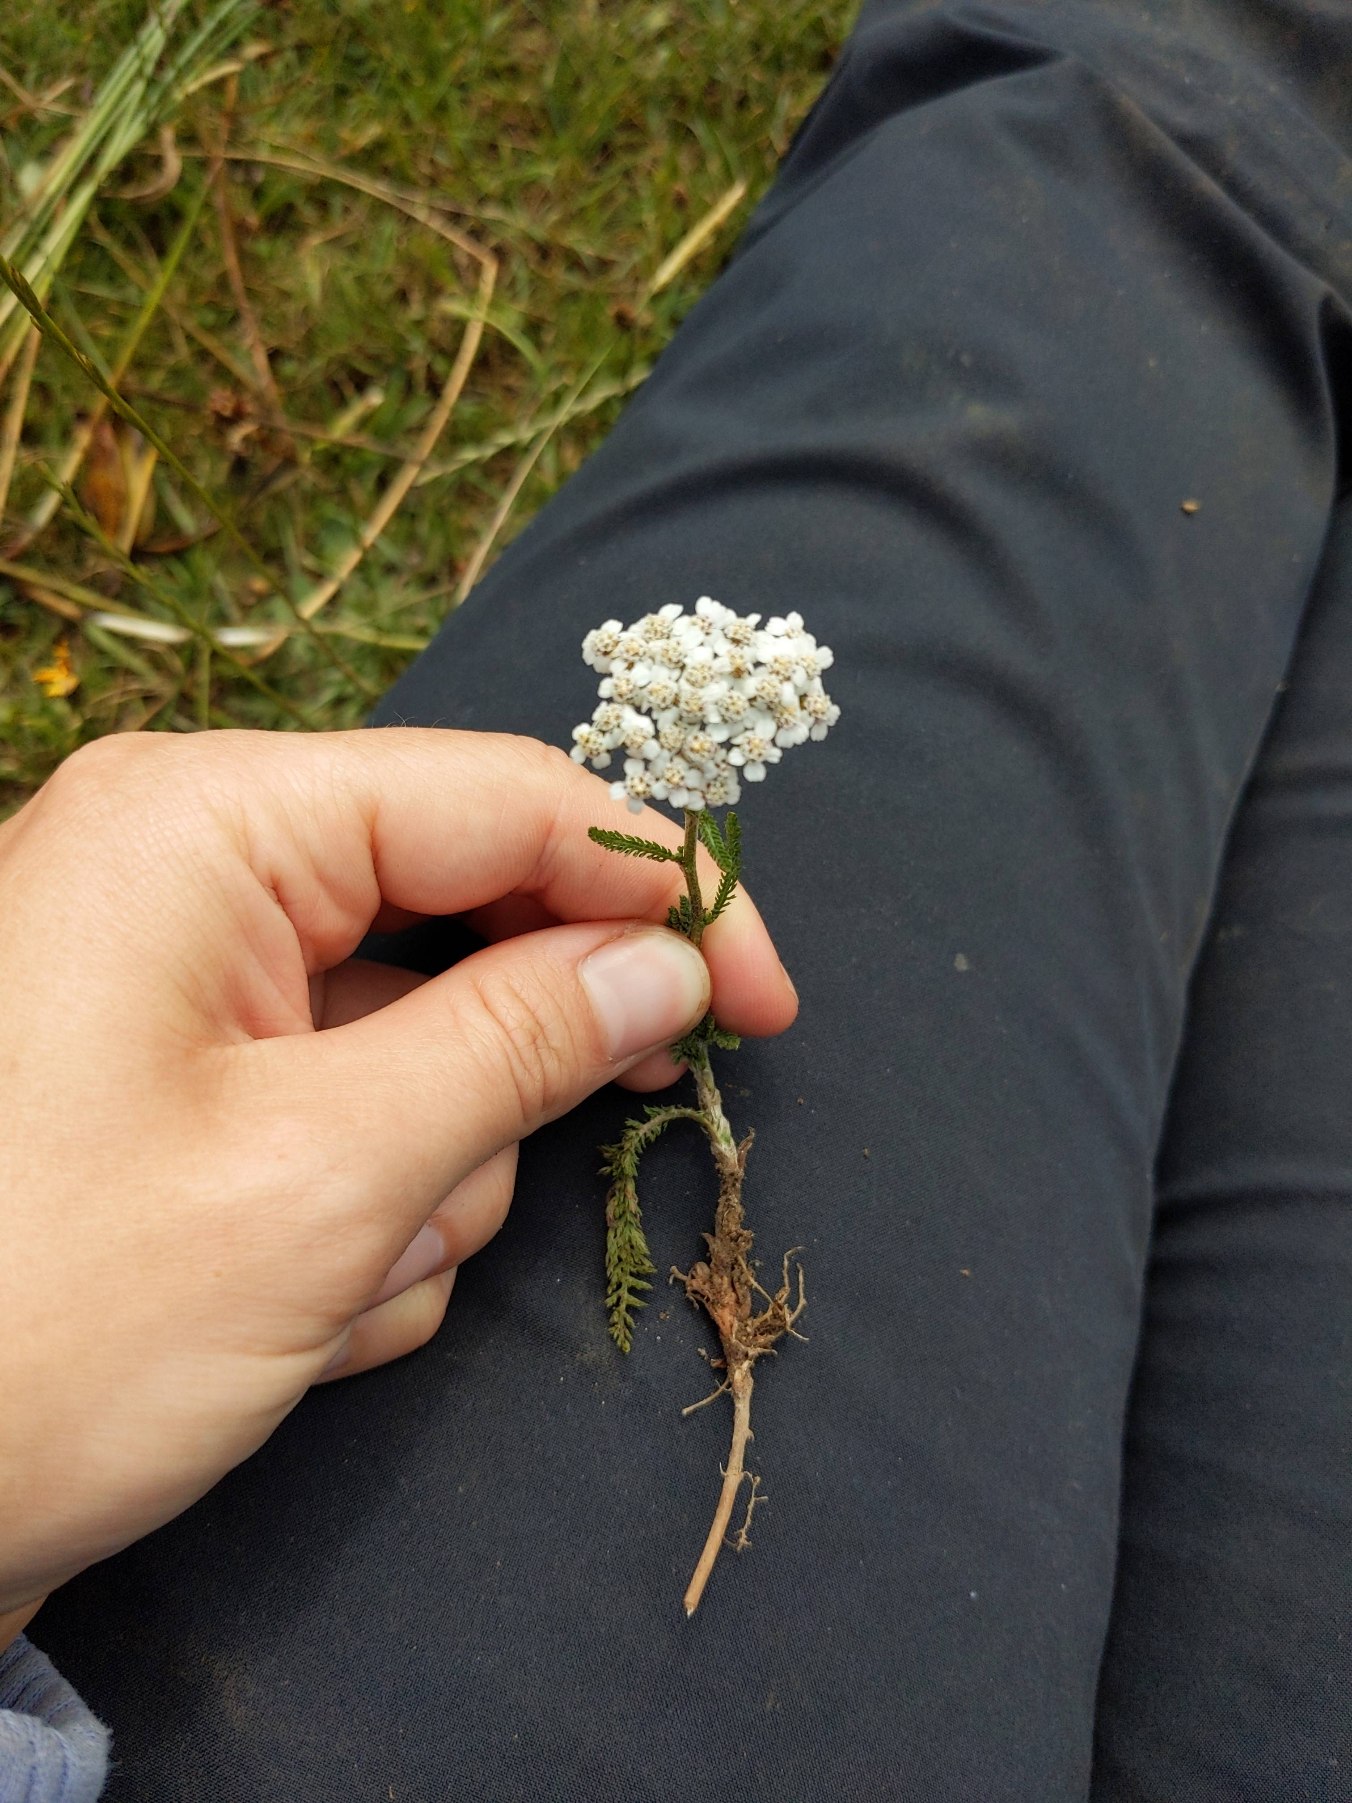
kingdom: Plantae
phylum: Tracheophyta
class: Magnoliopsida
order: Asterales
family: Asteraceae
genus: Achillea
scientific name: Achillea millefolium
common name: Almindelig røllike
